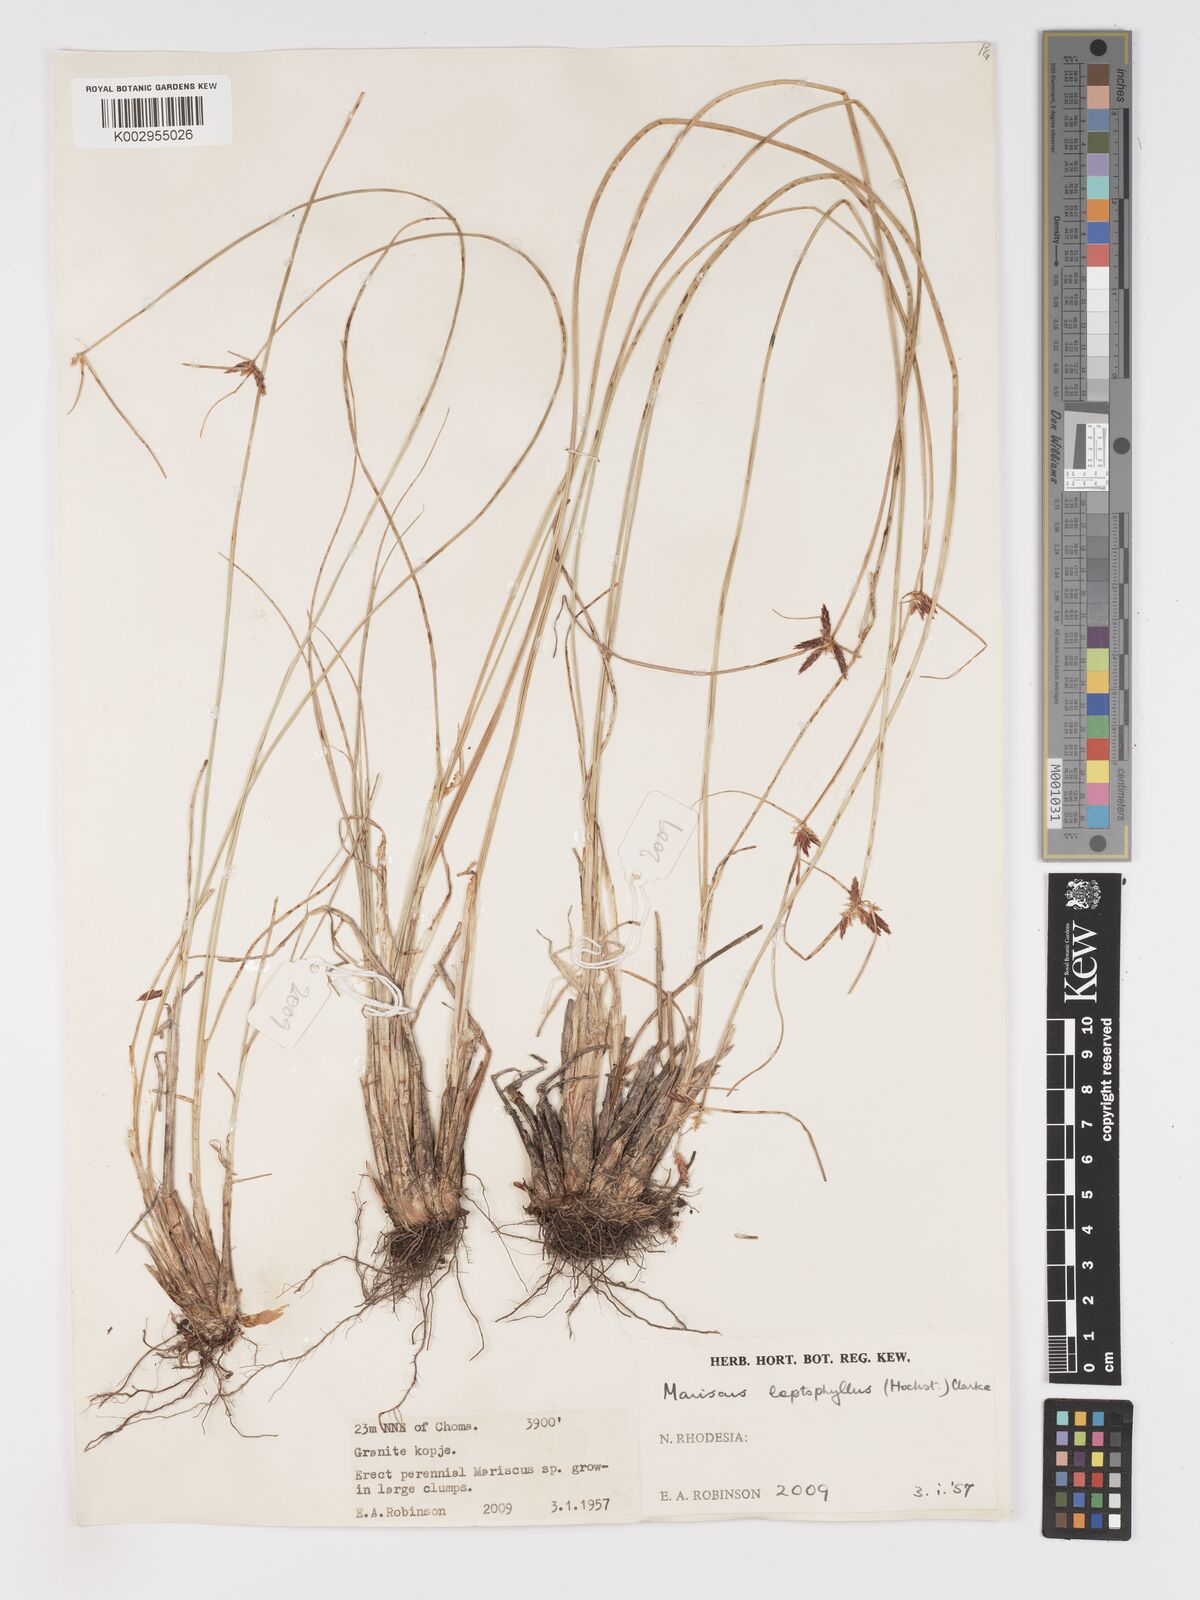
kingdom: Plantae
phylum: Tracheophyta
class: Liliopsida
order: Poales
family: Cyperaceae
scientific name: Cyperaceae
